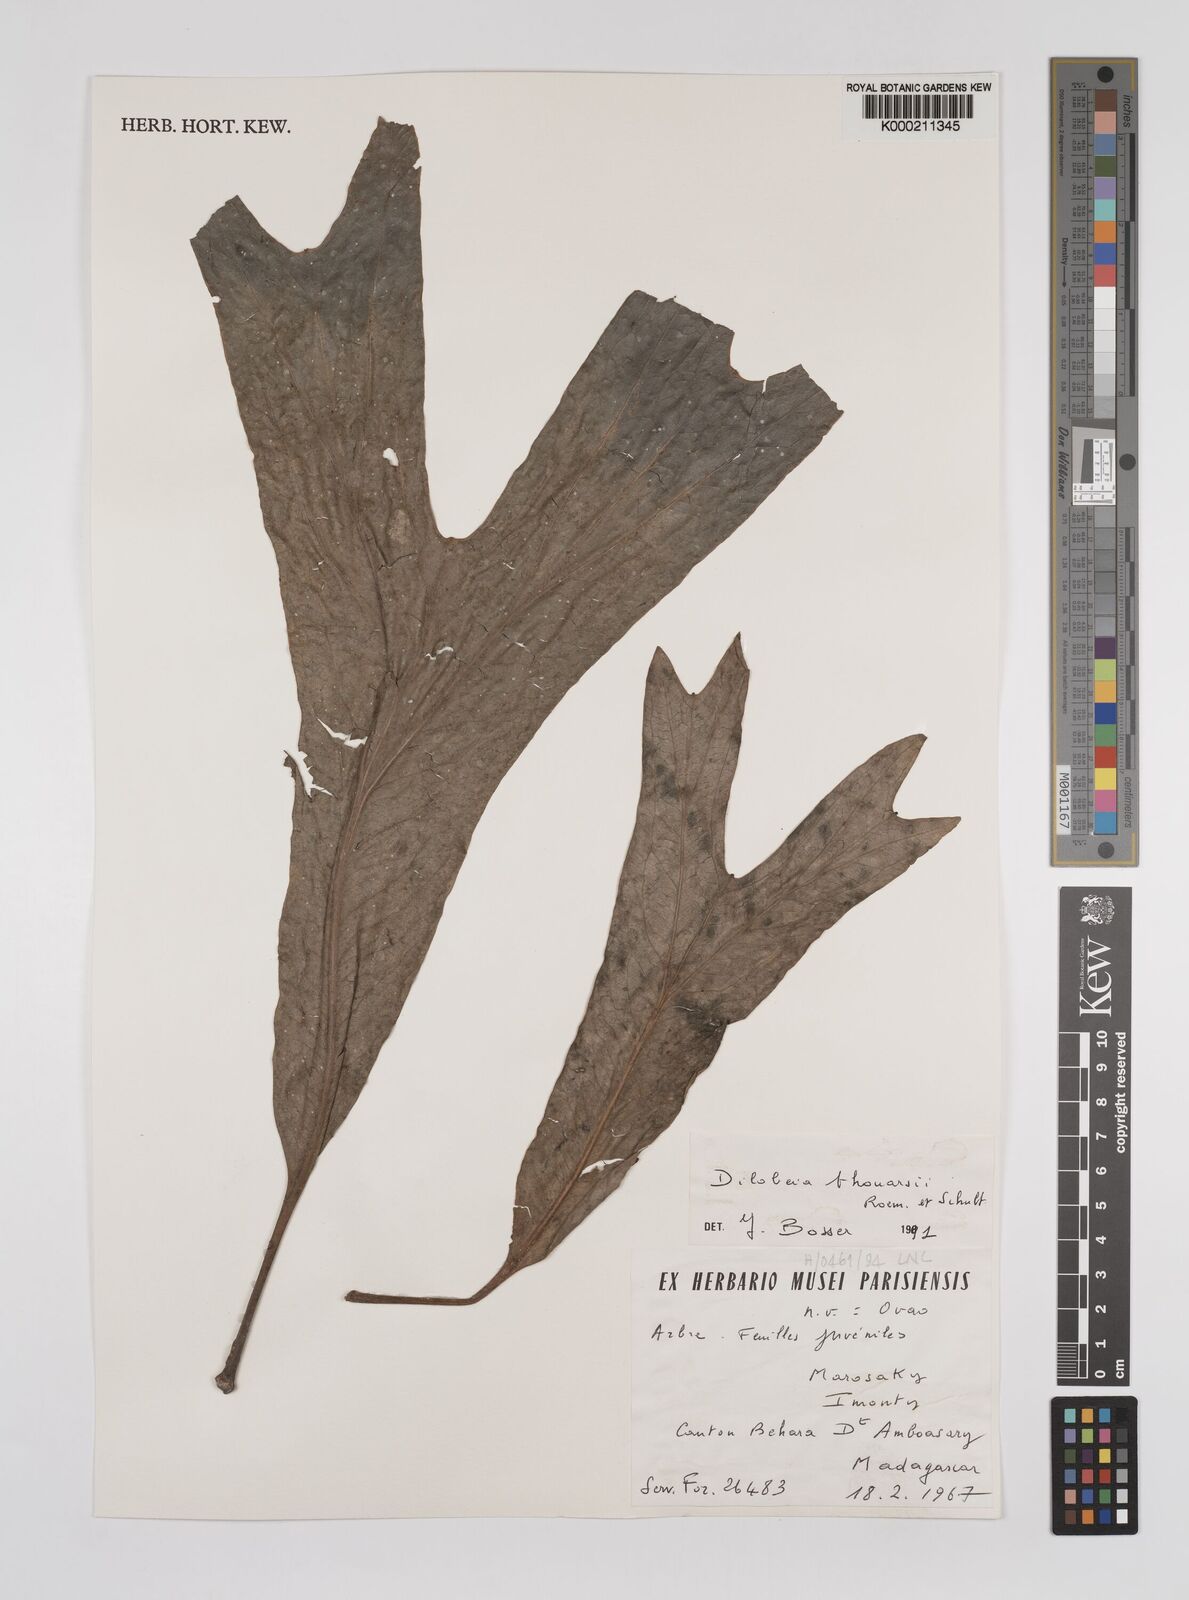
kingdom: Plantae
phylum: Tracheophyta
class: Magnoliopsida
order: Proteales
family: Proteaceae
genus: Dilobeia
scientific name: Dilobeia thouarsii
